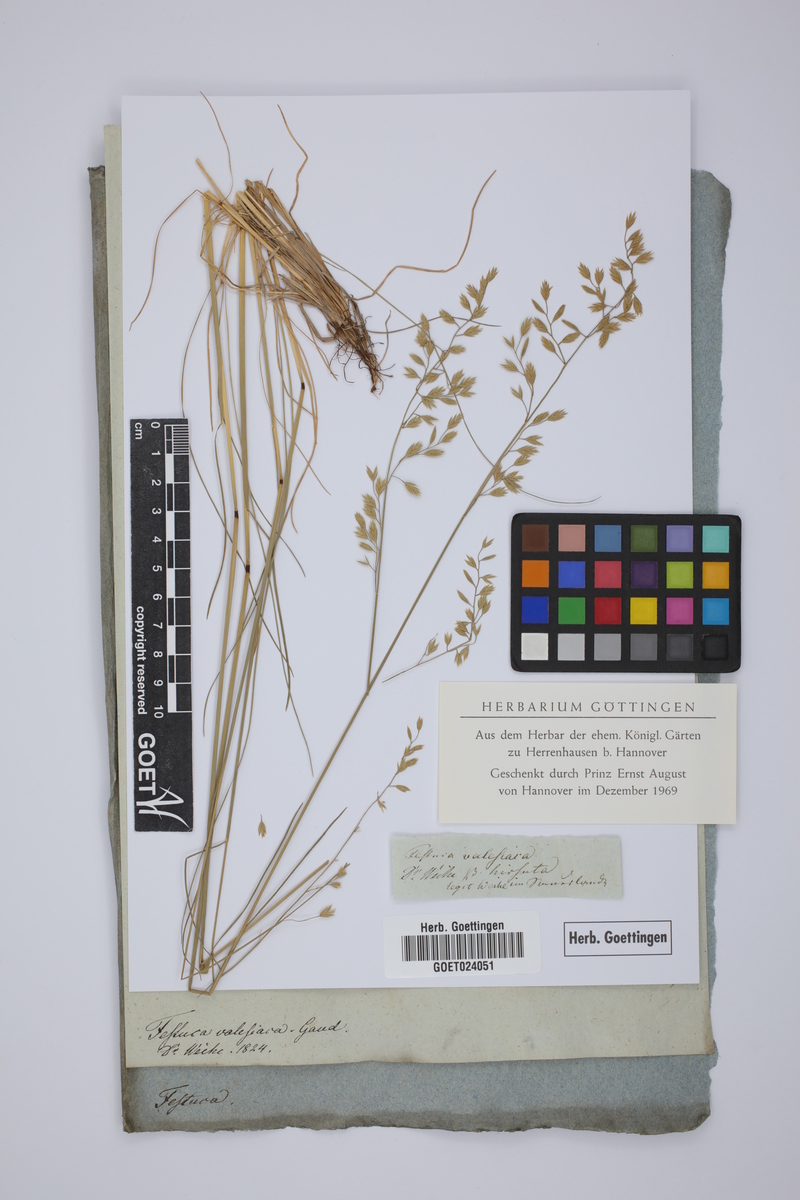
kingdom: Plantae
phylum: Tracheophyta
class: Liliopsida
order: Poales
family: Poaceae
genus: Festuca
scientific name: Festuca valesiaca
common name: Volga fescue
